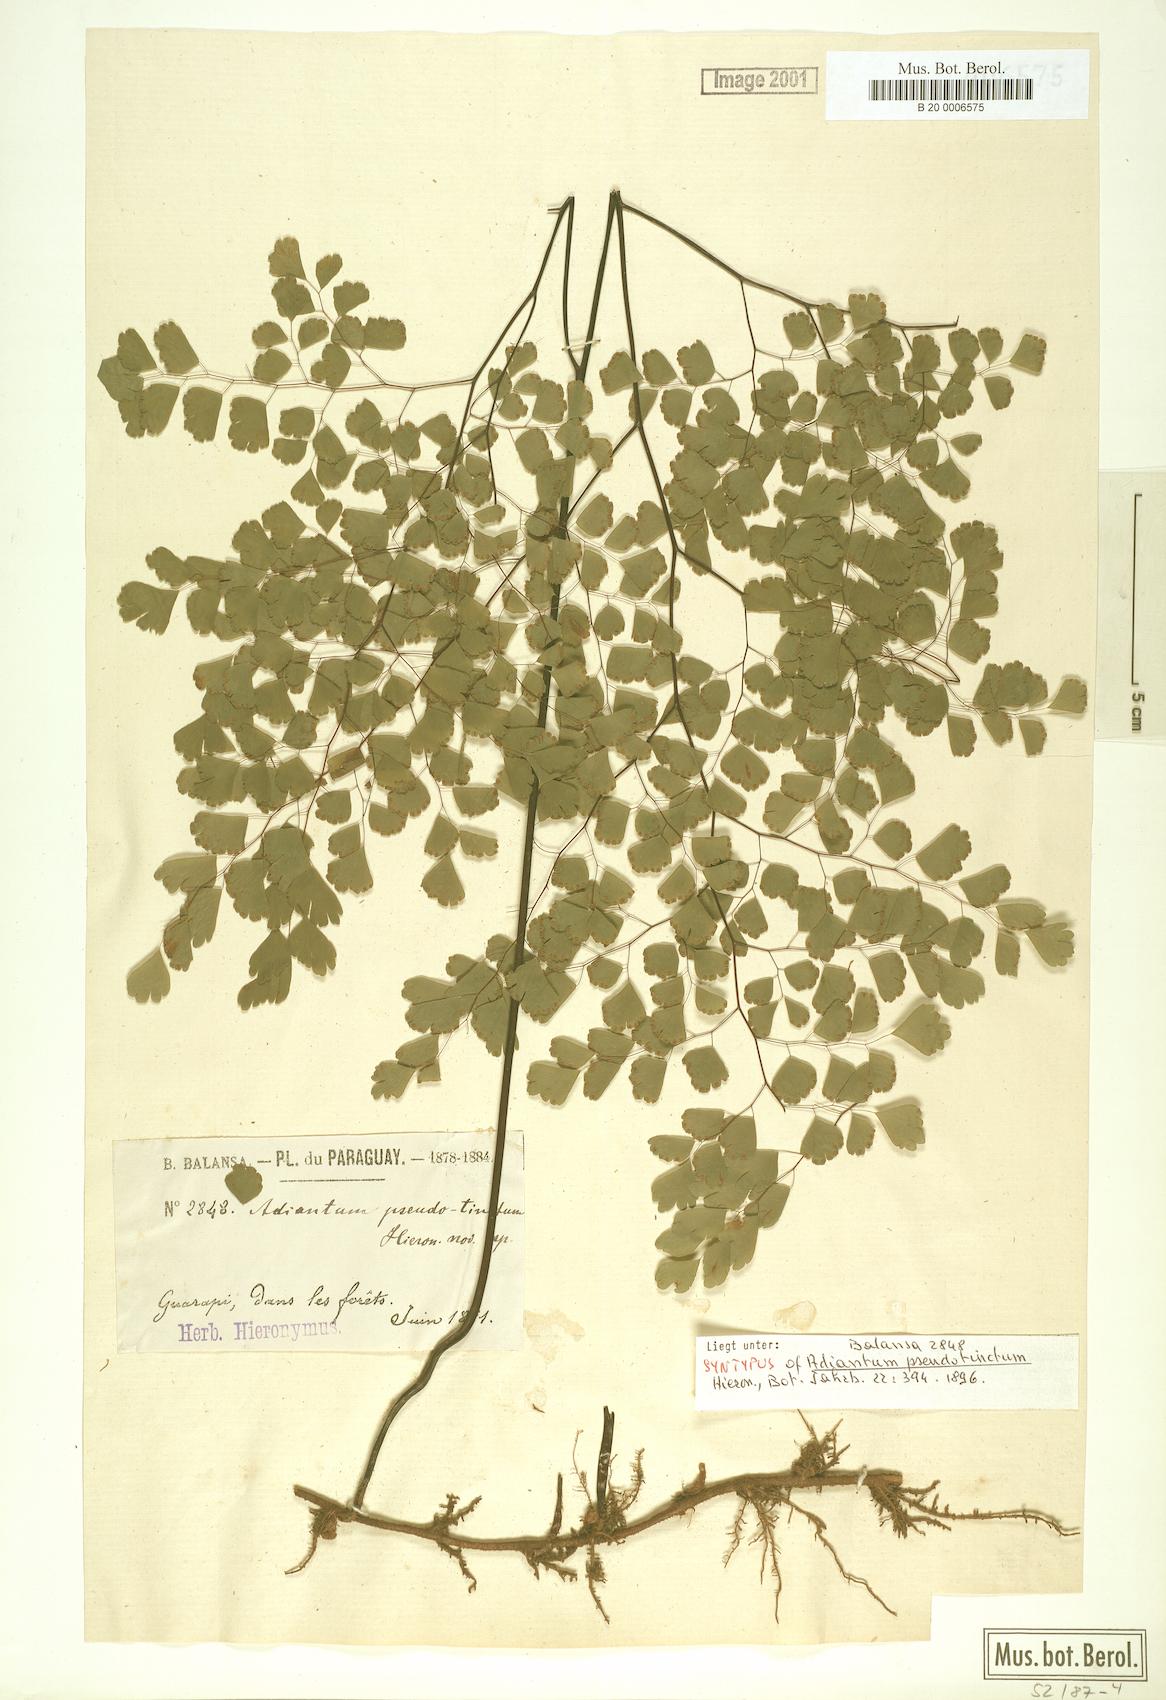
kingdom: Plantae
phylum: Tracheophyta
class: Polypodiopsida
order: Polypodiales
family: Pteridaceae
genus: Adiantum
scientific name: Adiantum pseudotinctum
